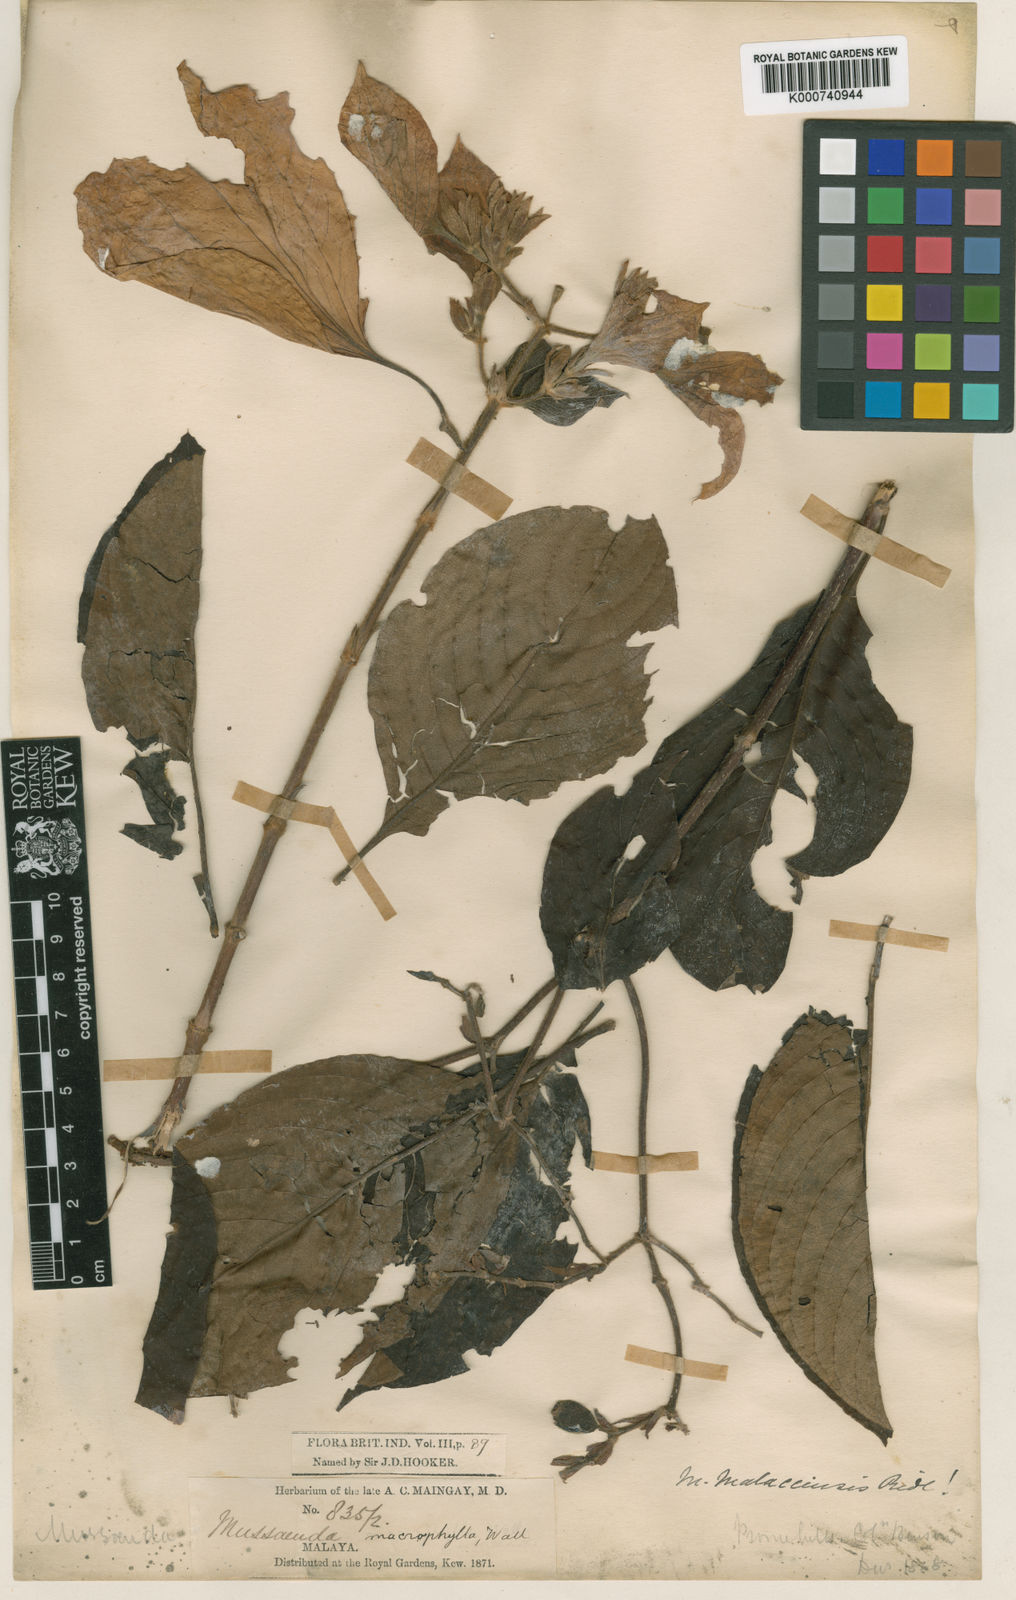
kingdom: Plantae
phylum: Tracheophyta
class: Magnoliopsida
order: Gentianales
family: Rubiaceae
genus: Mussaenda
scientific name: Mussaenda malaccensis
